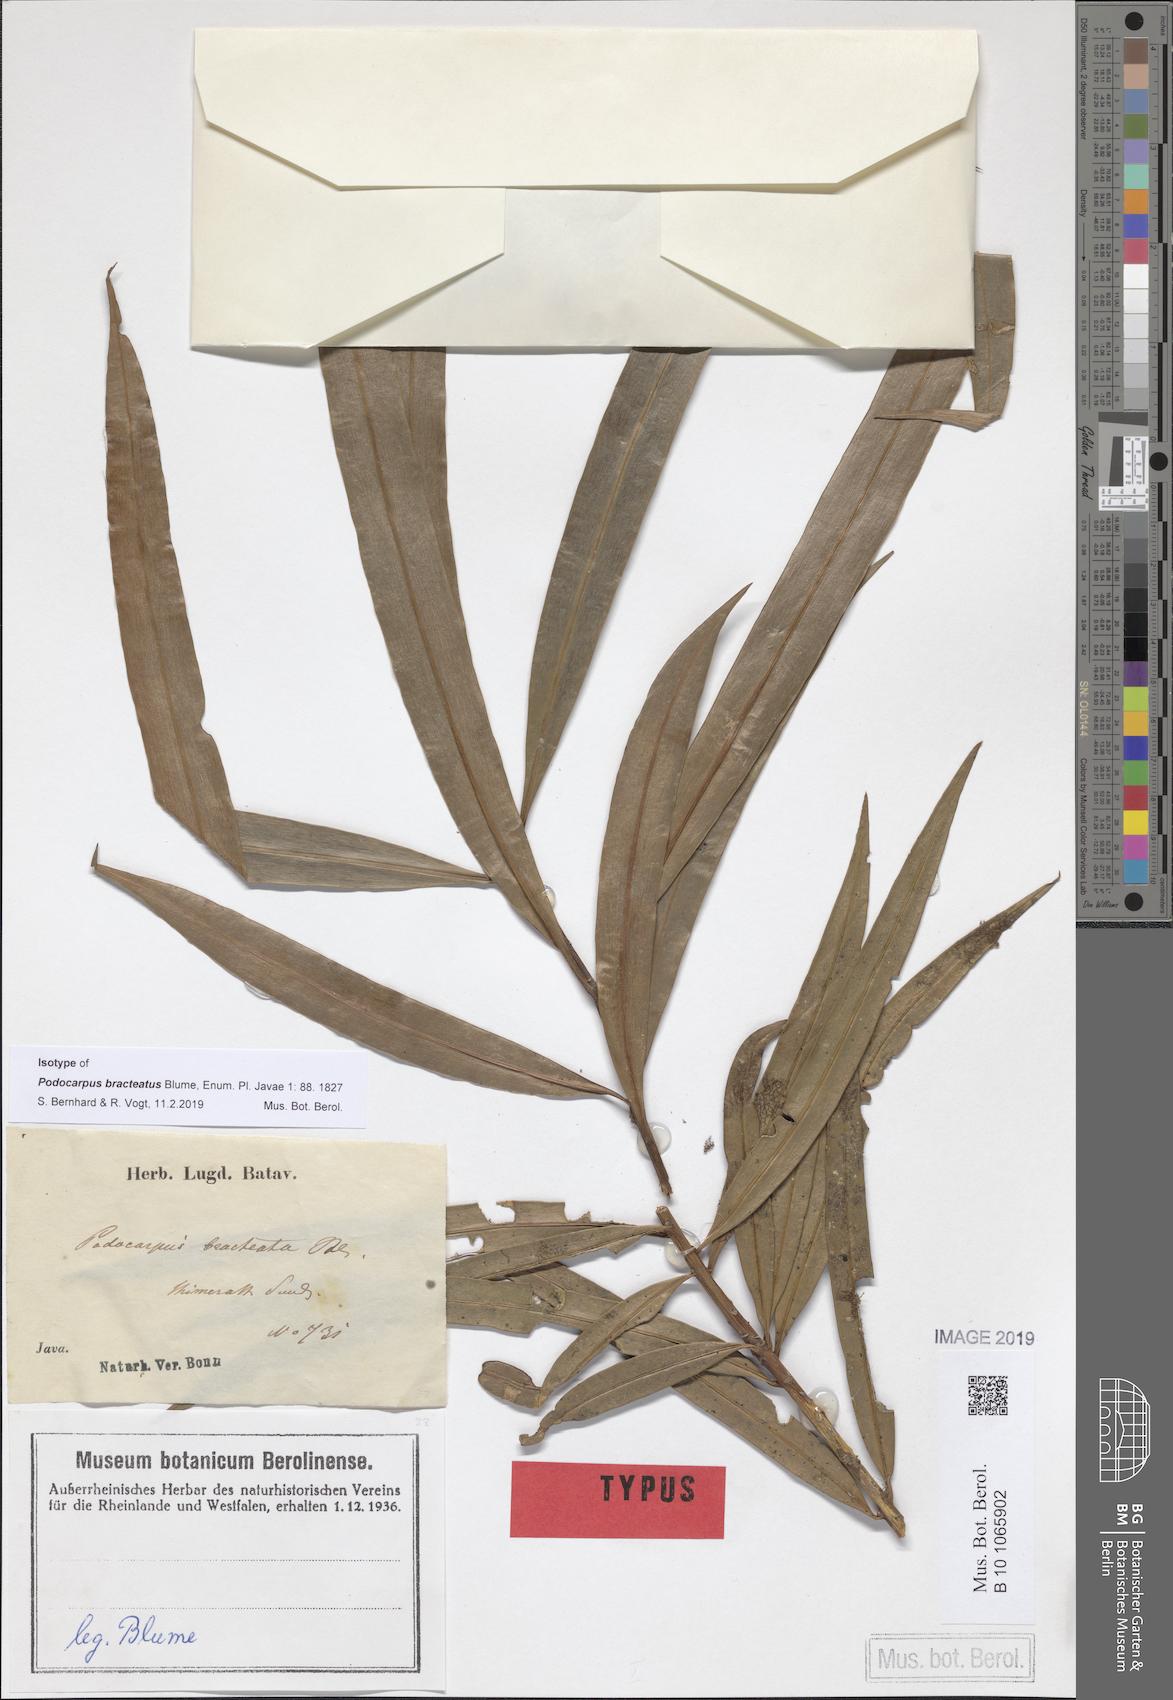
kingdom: Plantae
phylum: Tracheophyta
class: Pinopsida
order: Pinales
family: Podocarpaceae
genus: Podocarpus
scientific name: Podocarpus bracteatus
